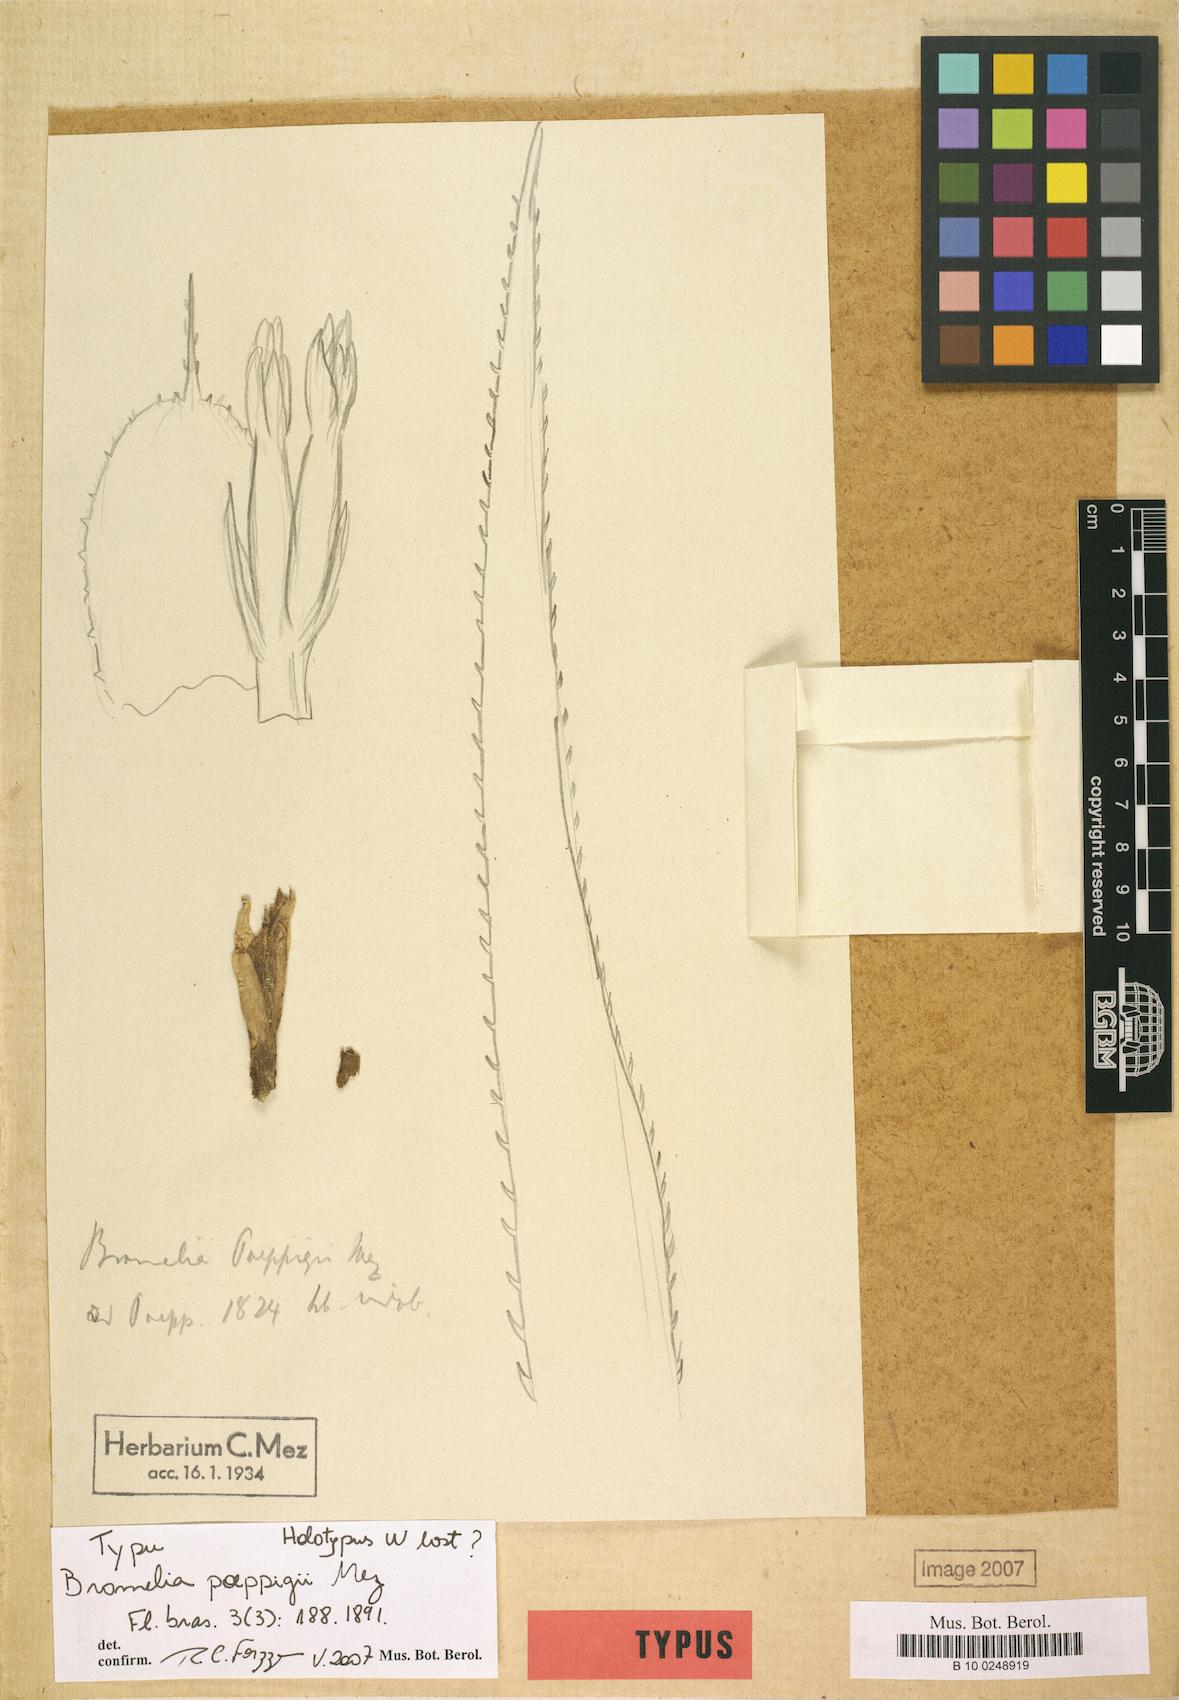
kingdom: Plantae
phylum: Tracheophyta
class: Liliopsida
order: Poales
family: Bromeliaceae
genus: Bromelia
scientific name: Bromelia poeppigii
